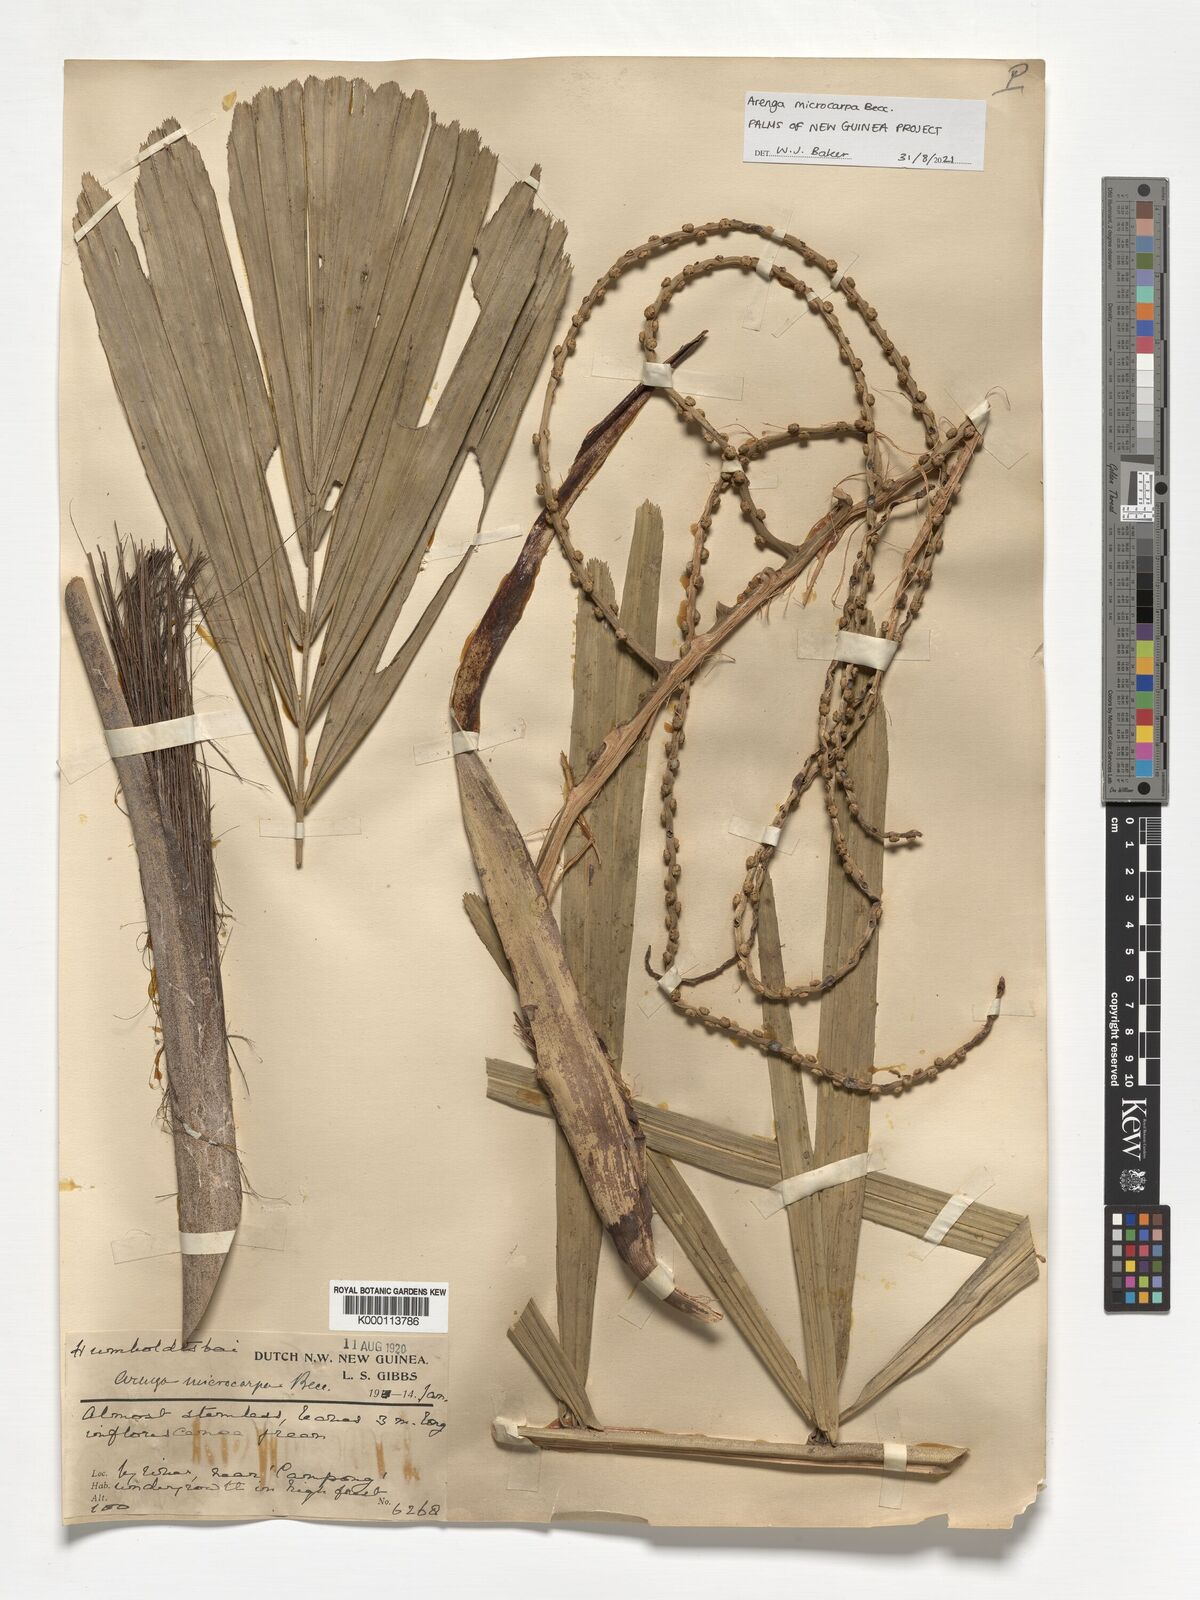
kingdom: Plantae
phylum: Tracheophyta
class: Liliopsida
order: Arecales
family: Arecaceae
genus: Arenga
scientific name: Arenga microcarpa
